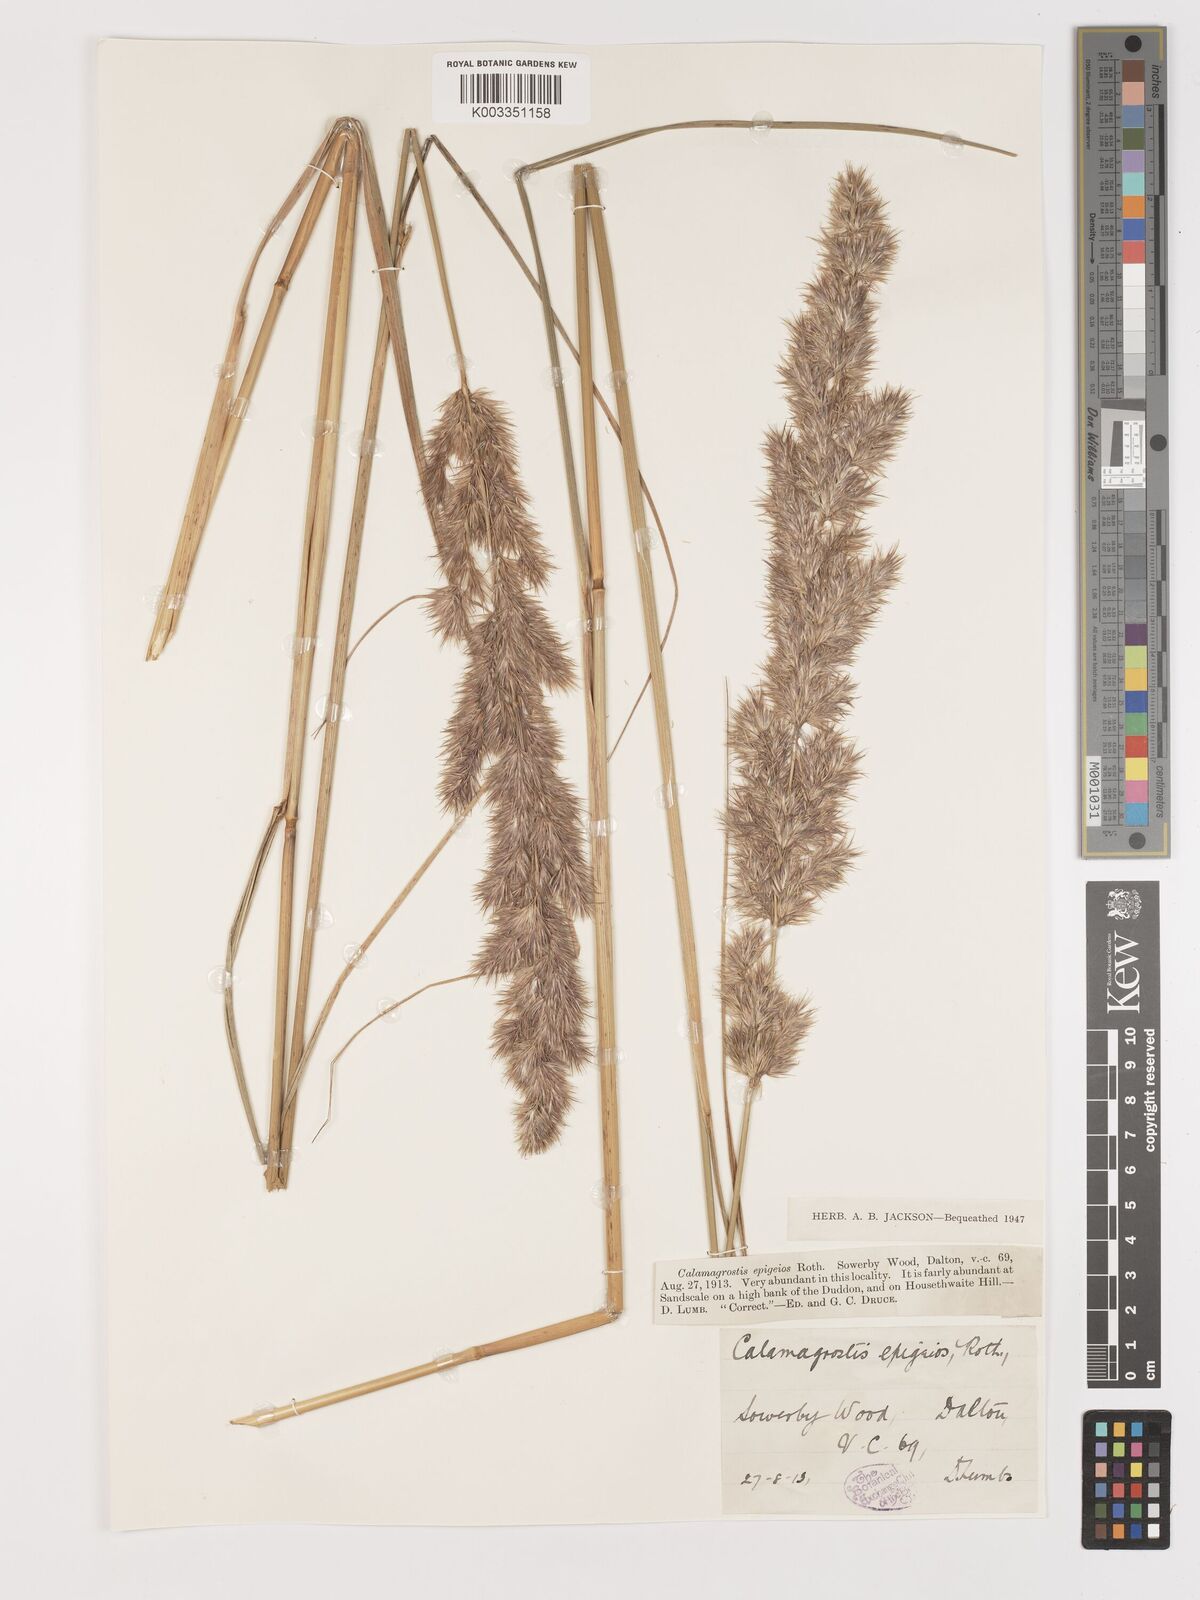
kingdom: Plantae
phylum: Tracheophyta
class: Liliopsida
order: Poales
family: Poaceae
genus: Calamagrostis
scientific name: Calamagrostis
